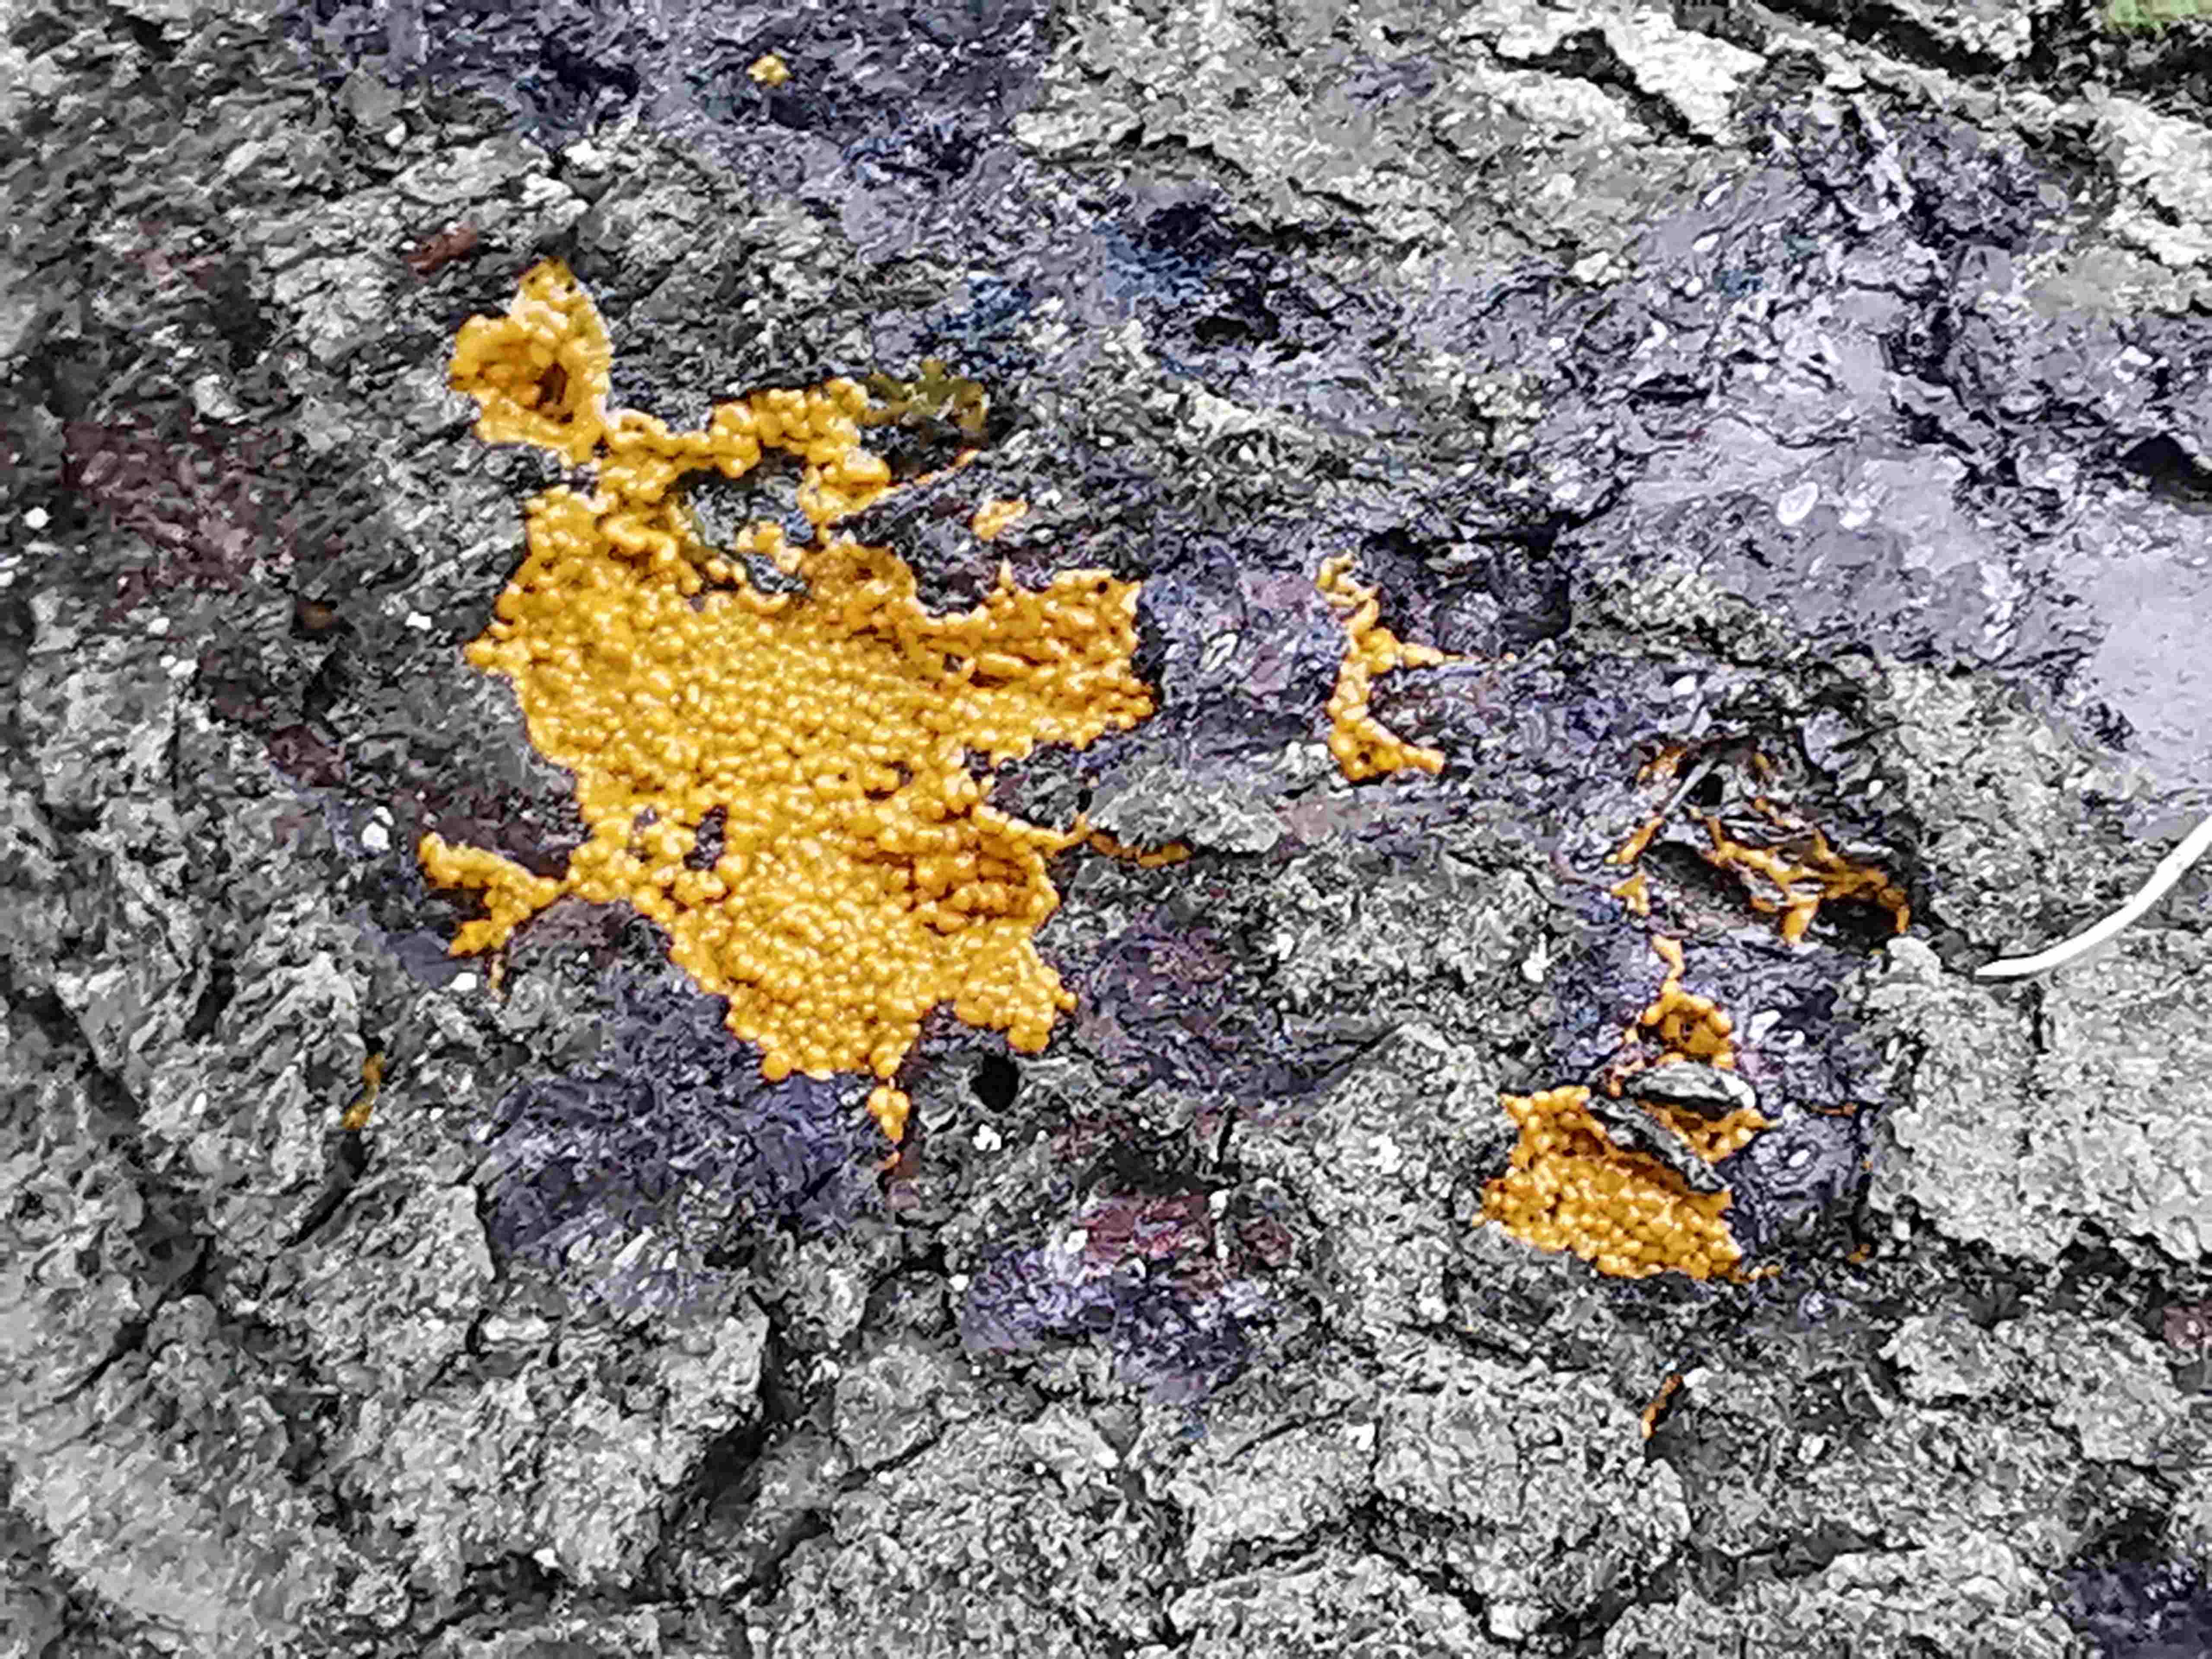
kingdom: Protozoa
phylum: Mycetozoa
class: Myxomycetes
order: Trichiales
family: Trichiaceae
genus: Trichia
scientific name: Trichia
